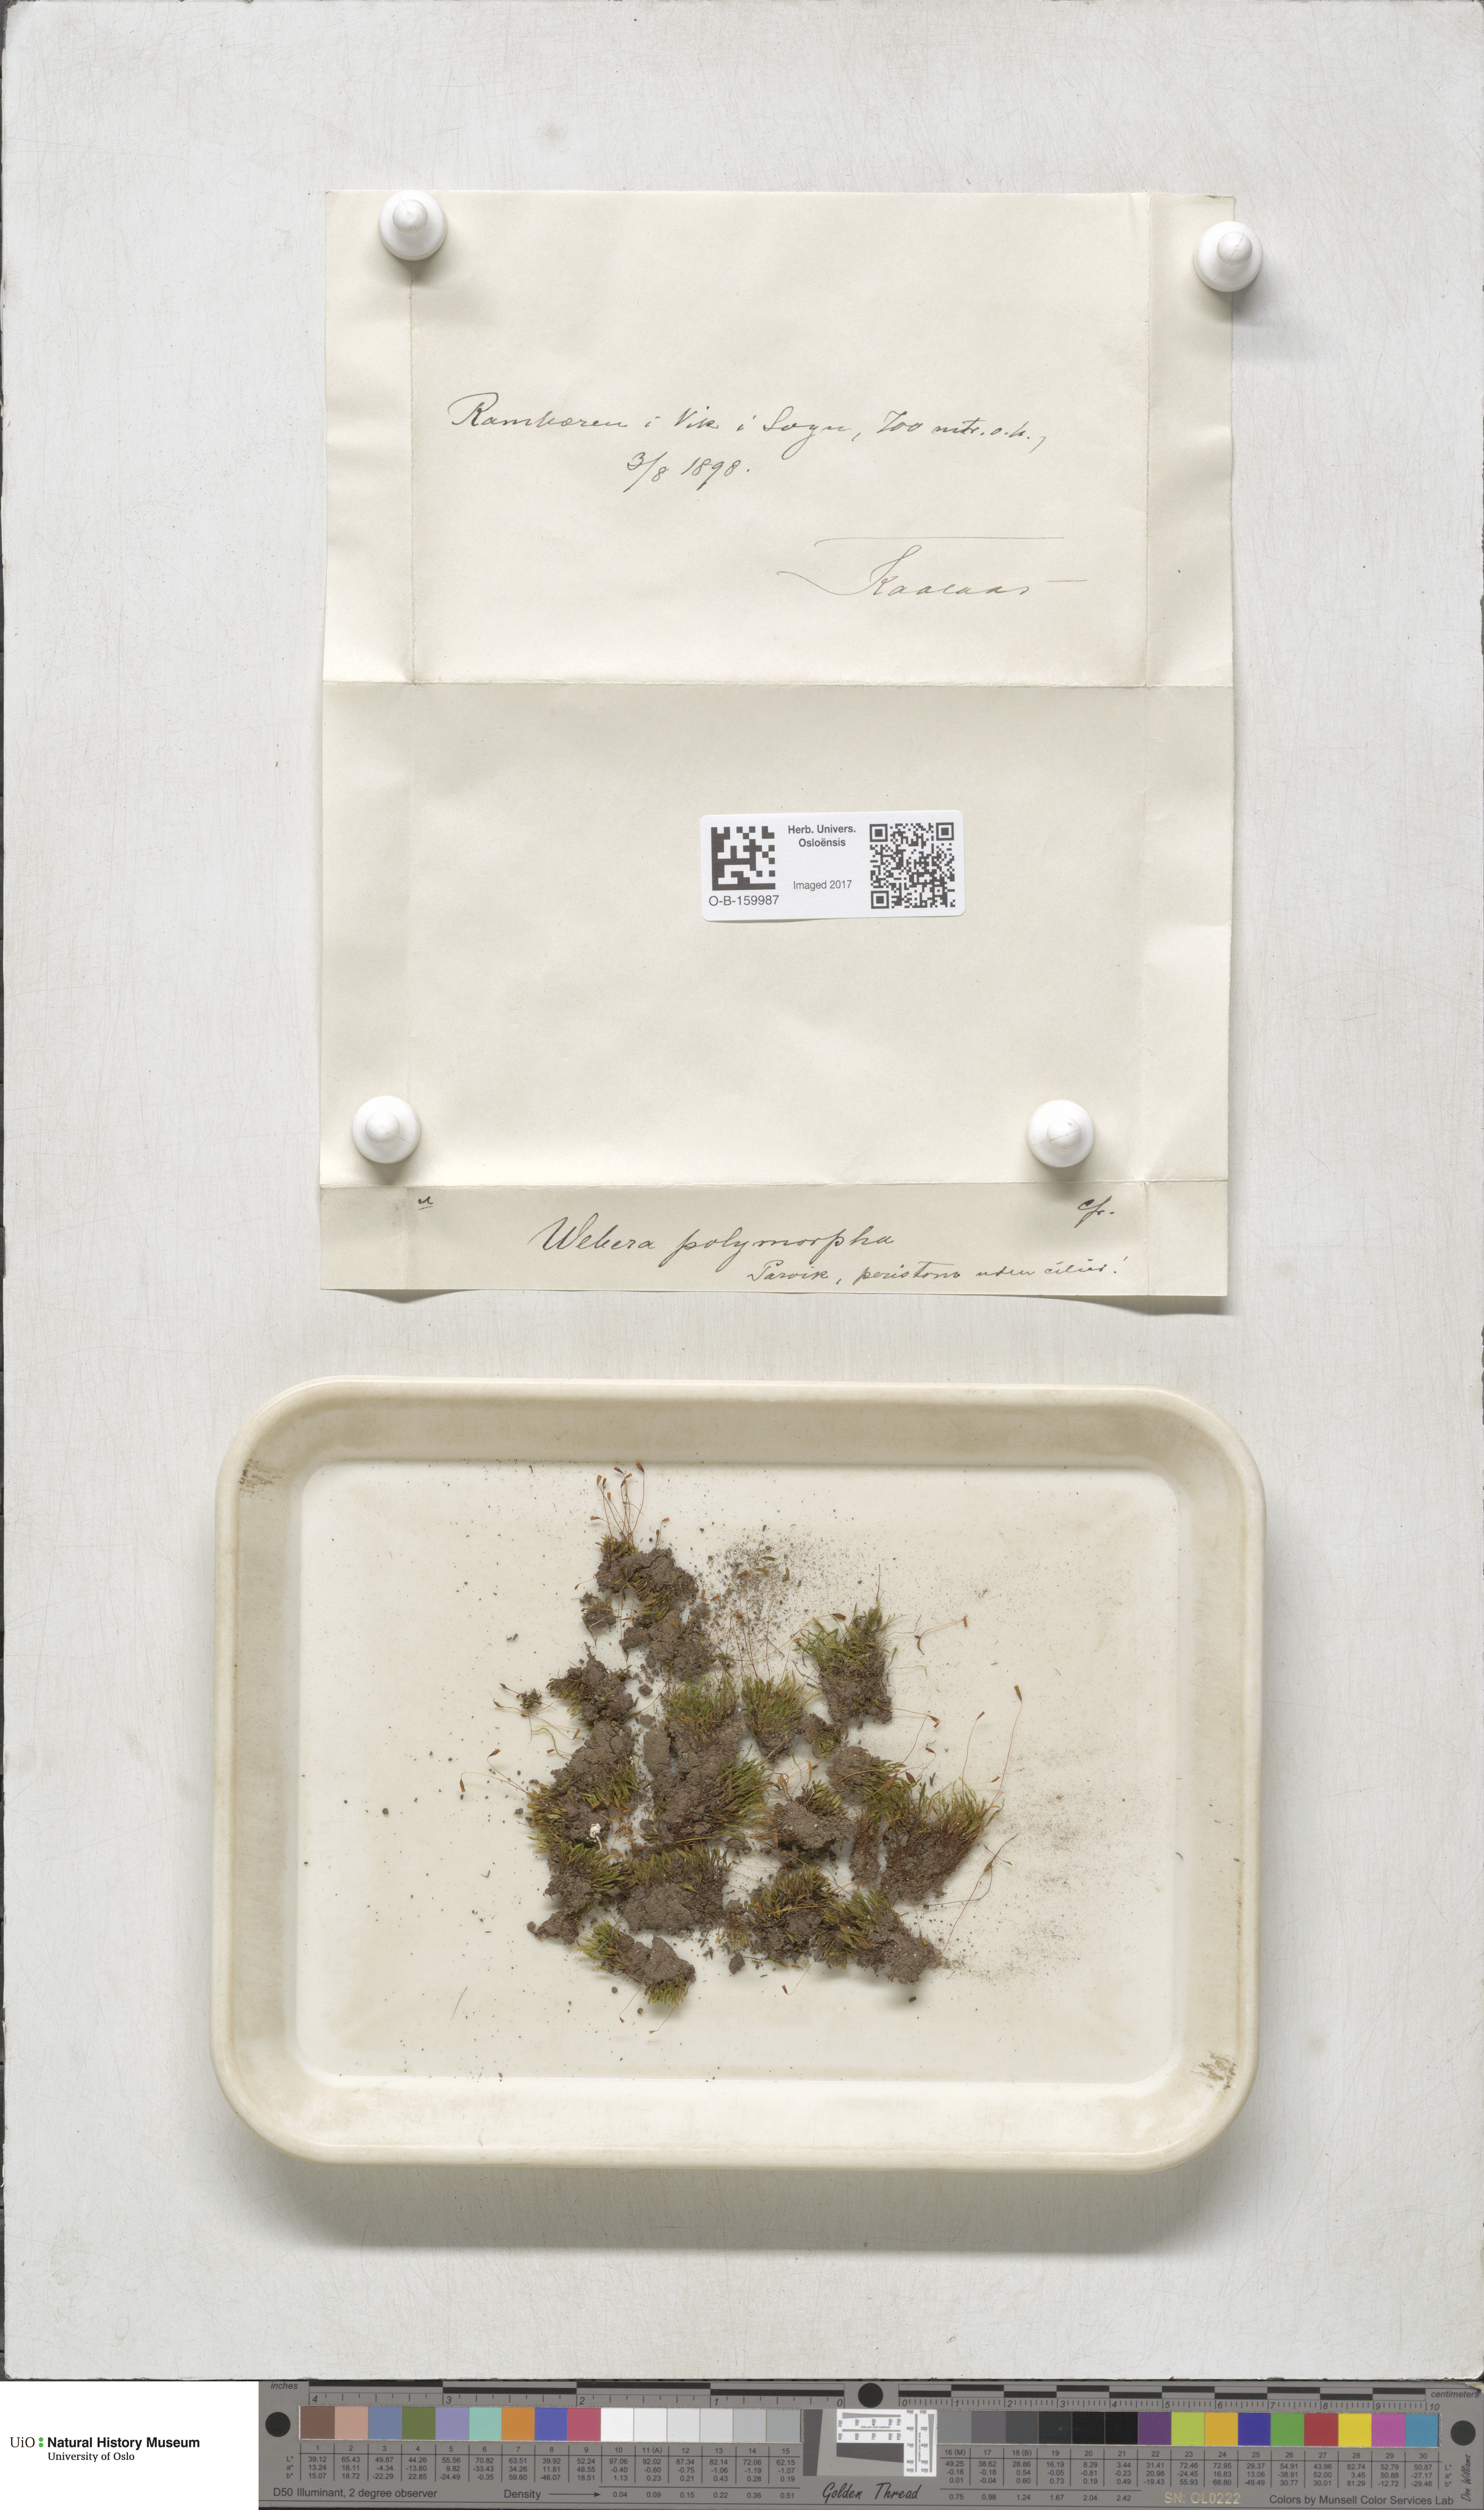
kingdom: Plantae
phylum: Bryophyta
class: Bryopsida
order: Bryales
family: Mniaceae
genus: Pohlia
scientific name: Pohlia elongata
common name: Long-fruited thread-moss
